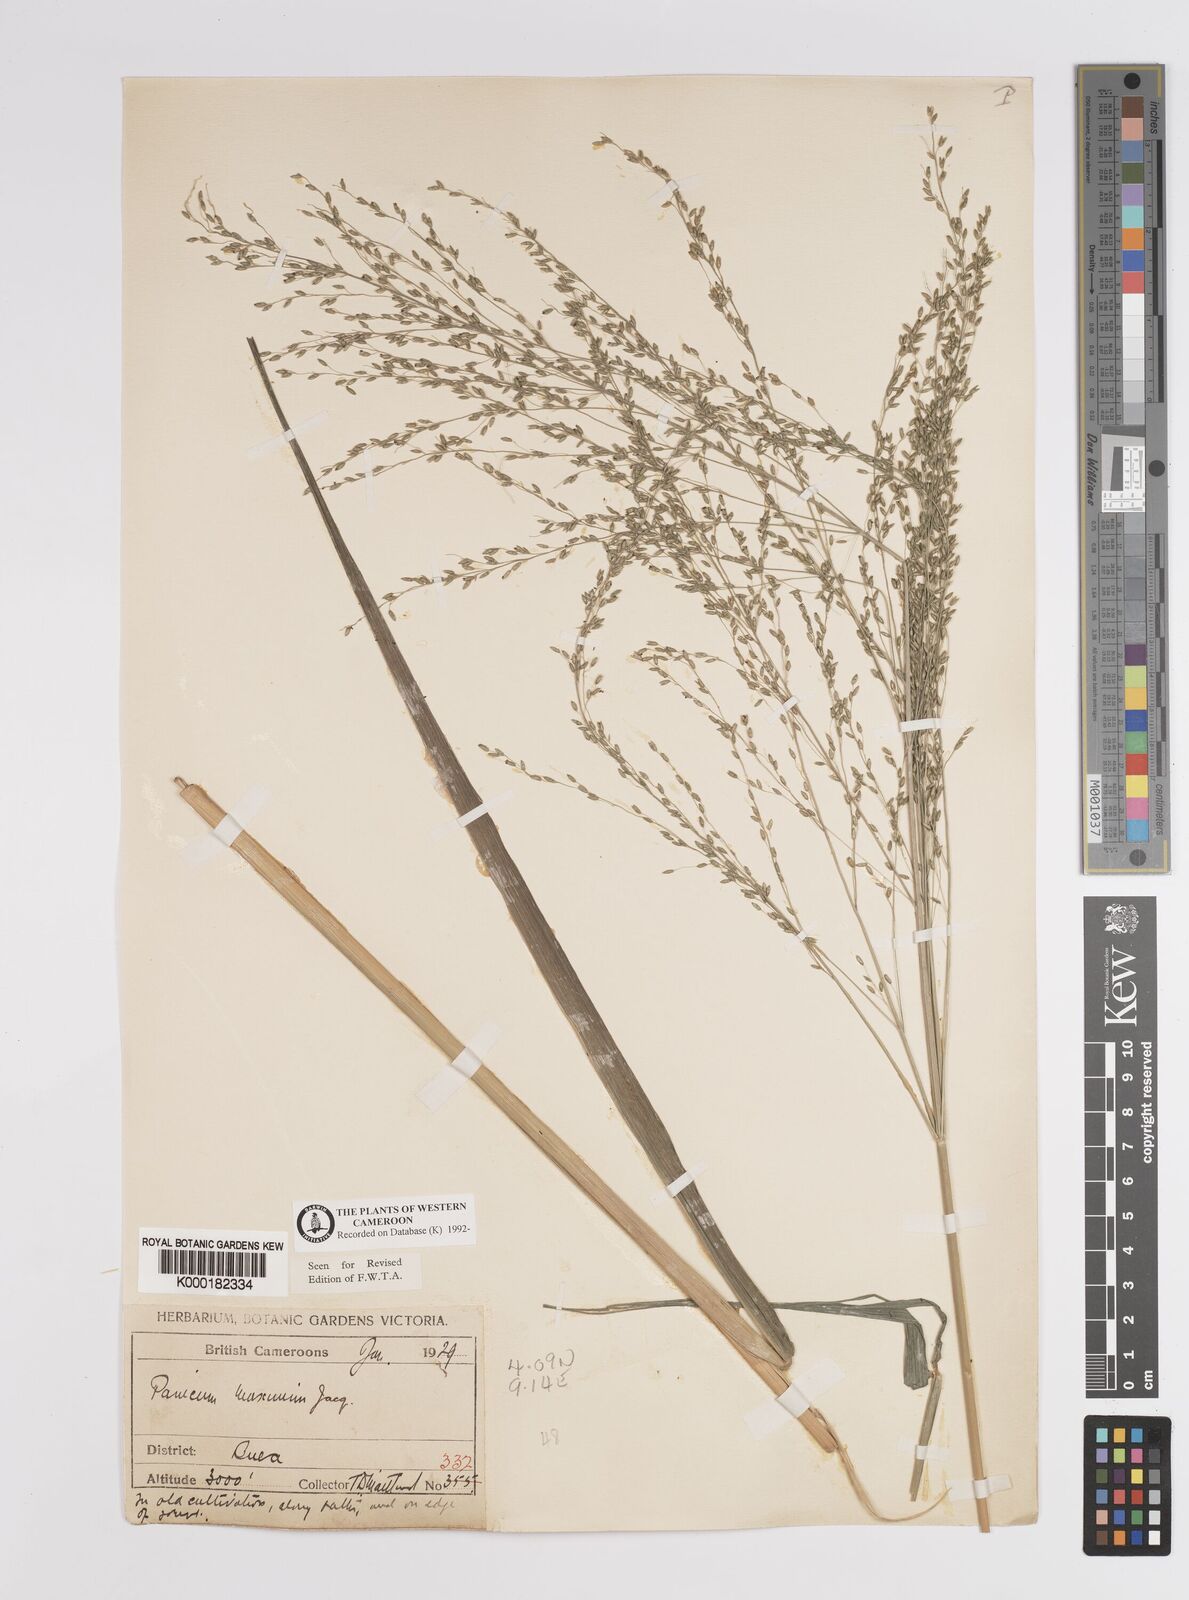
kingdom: Plantae
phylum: Tracheophyta
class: Liliopsida
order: Poales
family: Poaceae
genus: Megathyrsus
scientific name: Megathyrsus maximus
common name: Guineagrass
